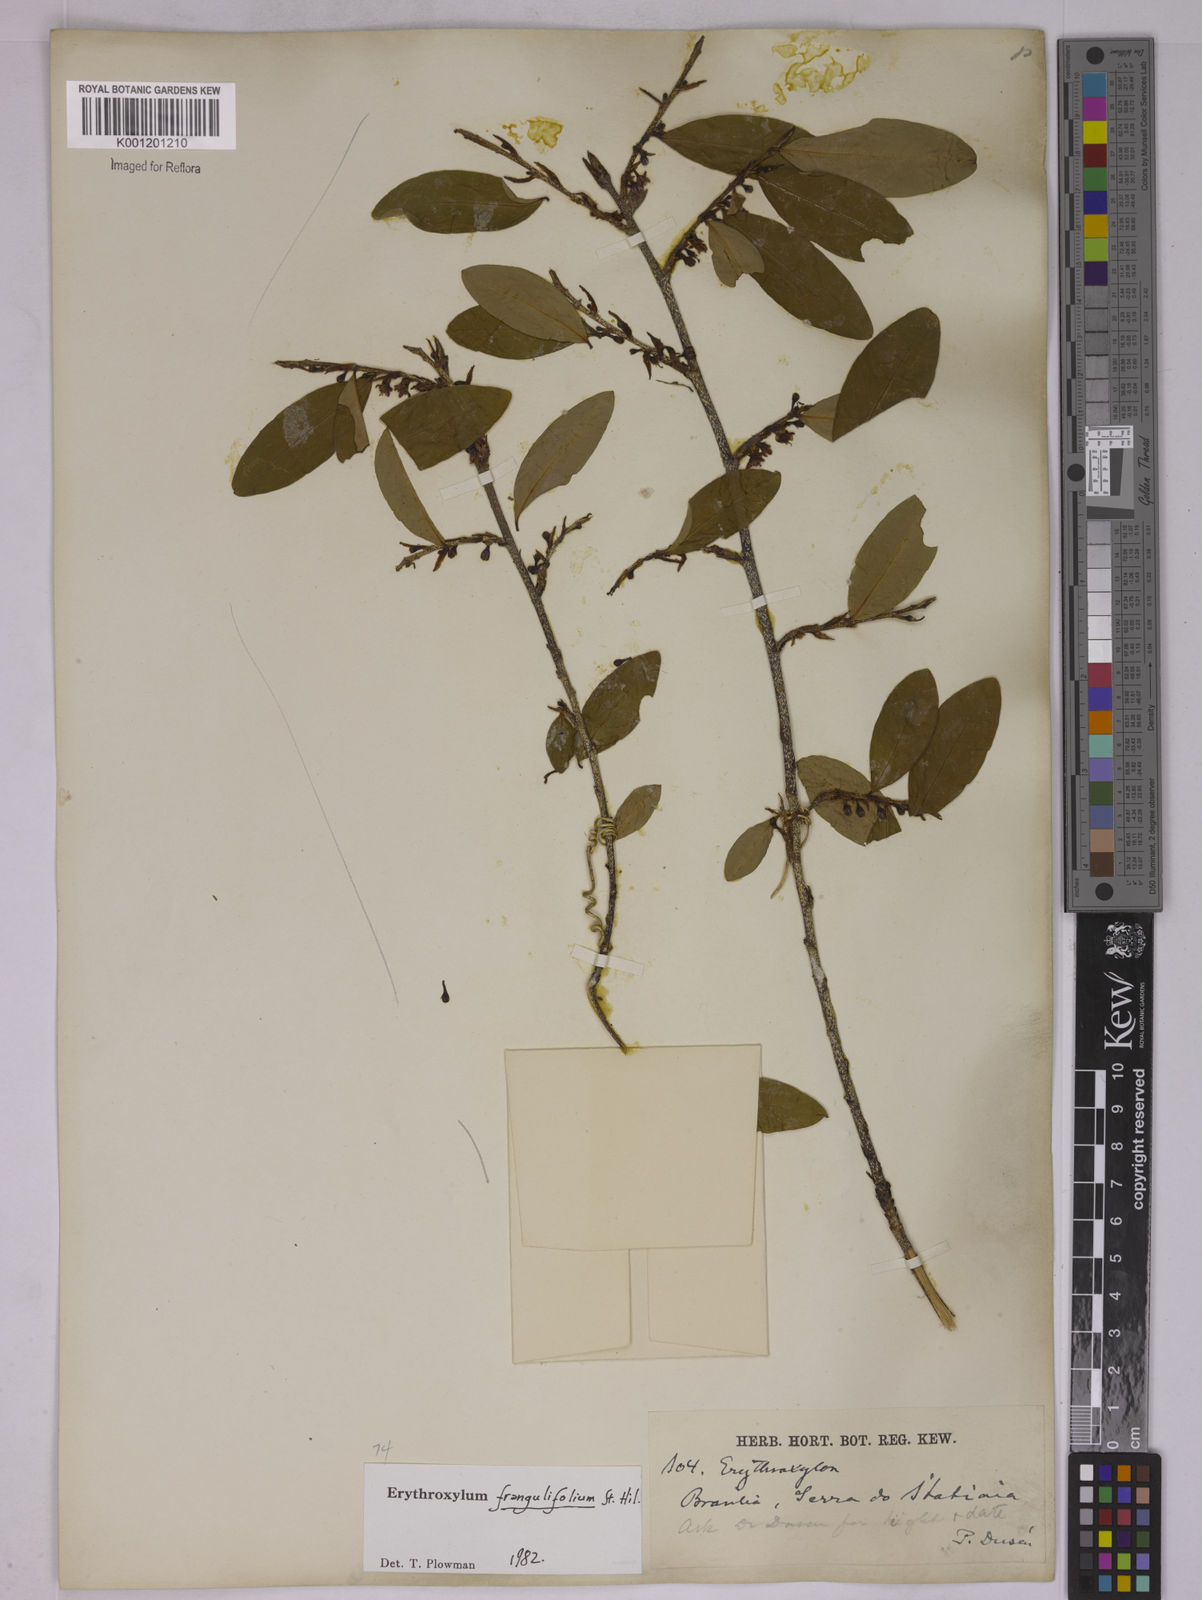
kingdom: Plantae
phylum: Tracheophyta
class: Magnoliopsida
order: Malpighiales
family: Erythroxylaceae
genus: Erythroxylum
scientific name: Erythroxylum frangulifolium
